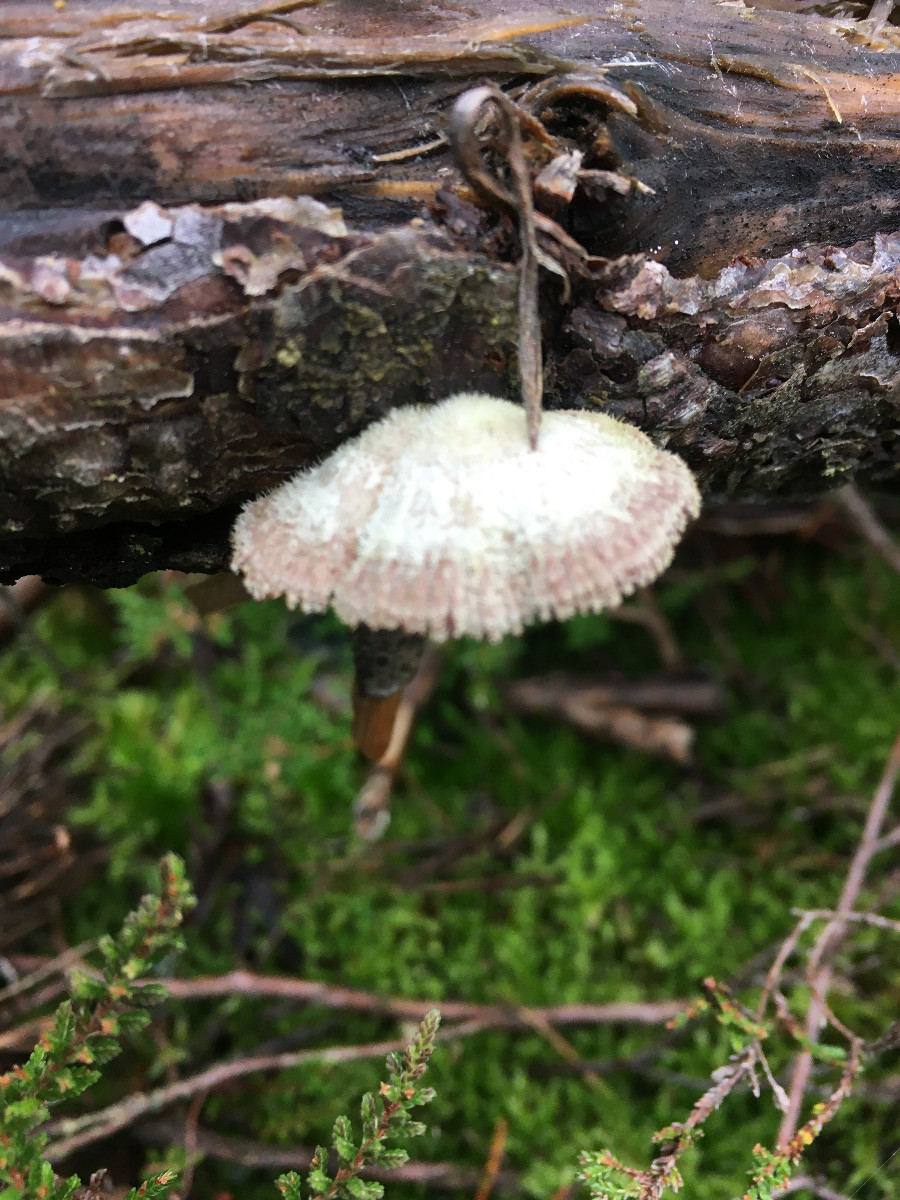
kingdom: Fungi
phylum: Basidiomycota
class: Agaricomycetes
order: Agaricales
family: Schizophyllaceae
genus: Schizophyllum
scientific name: Schizophyllum commune
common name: kløvblad
